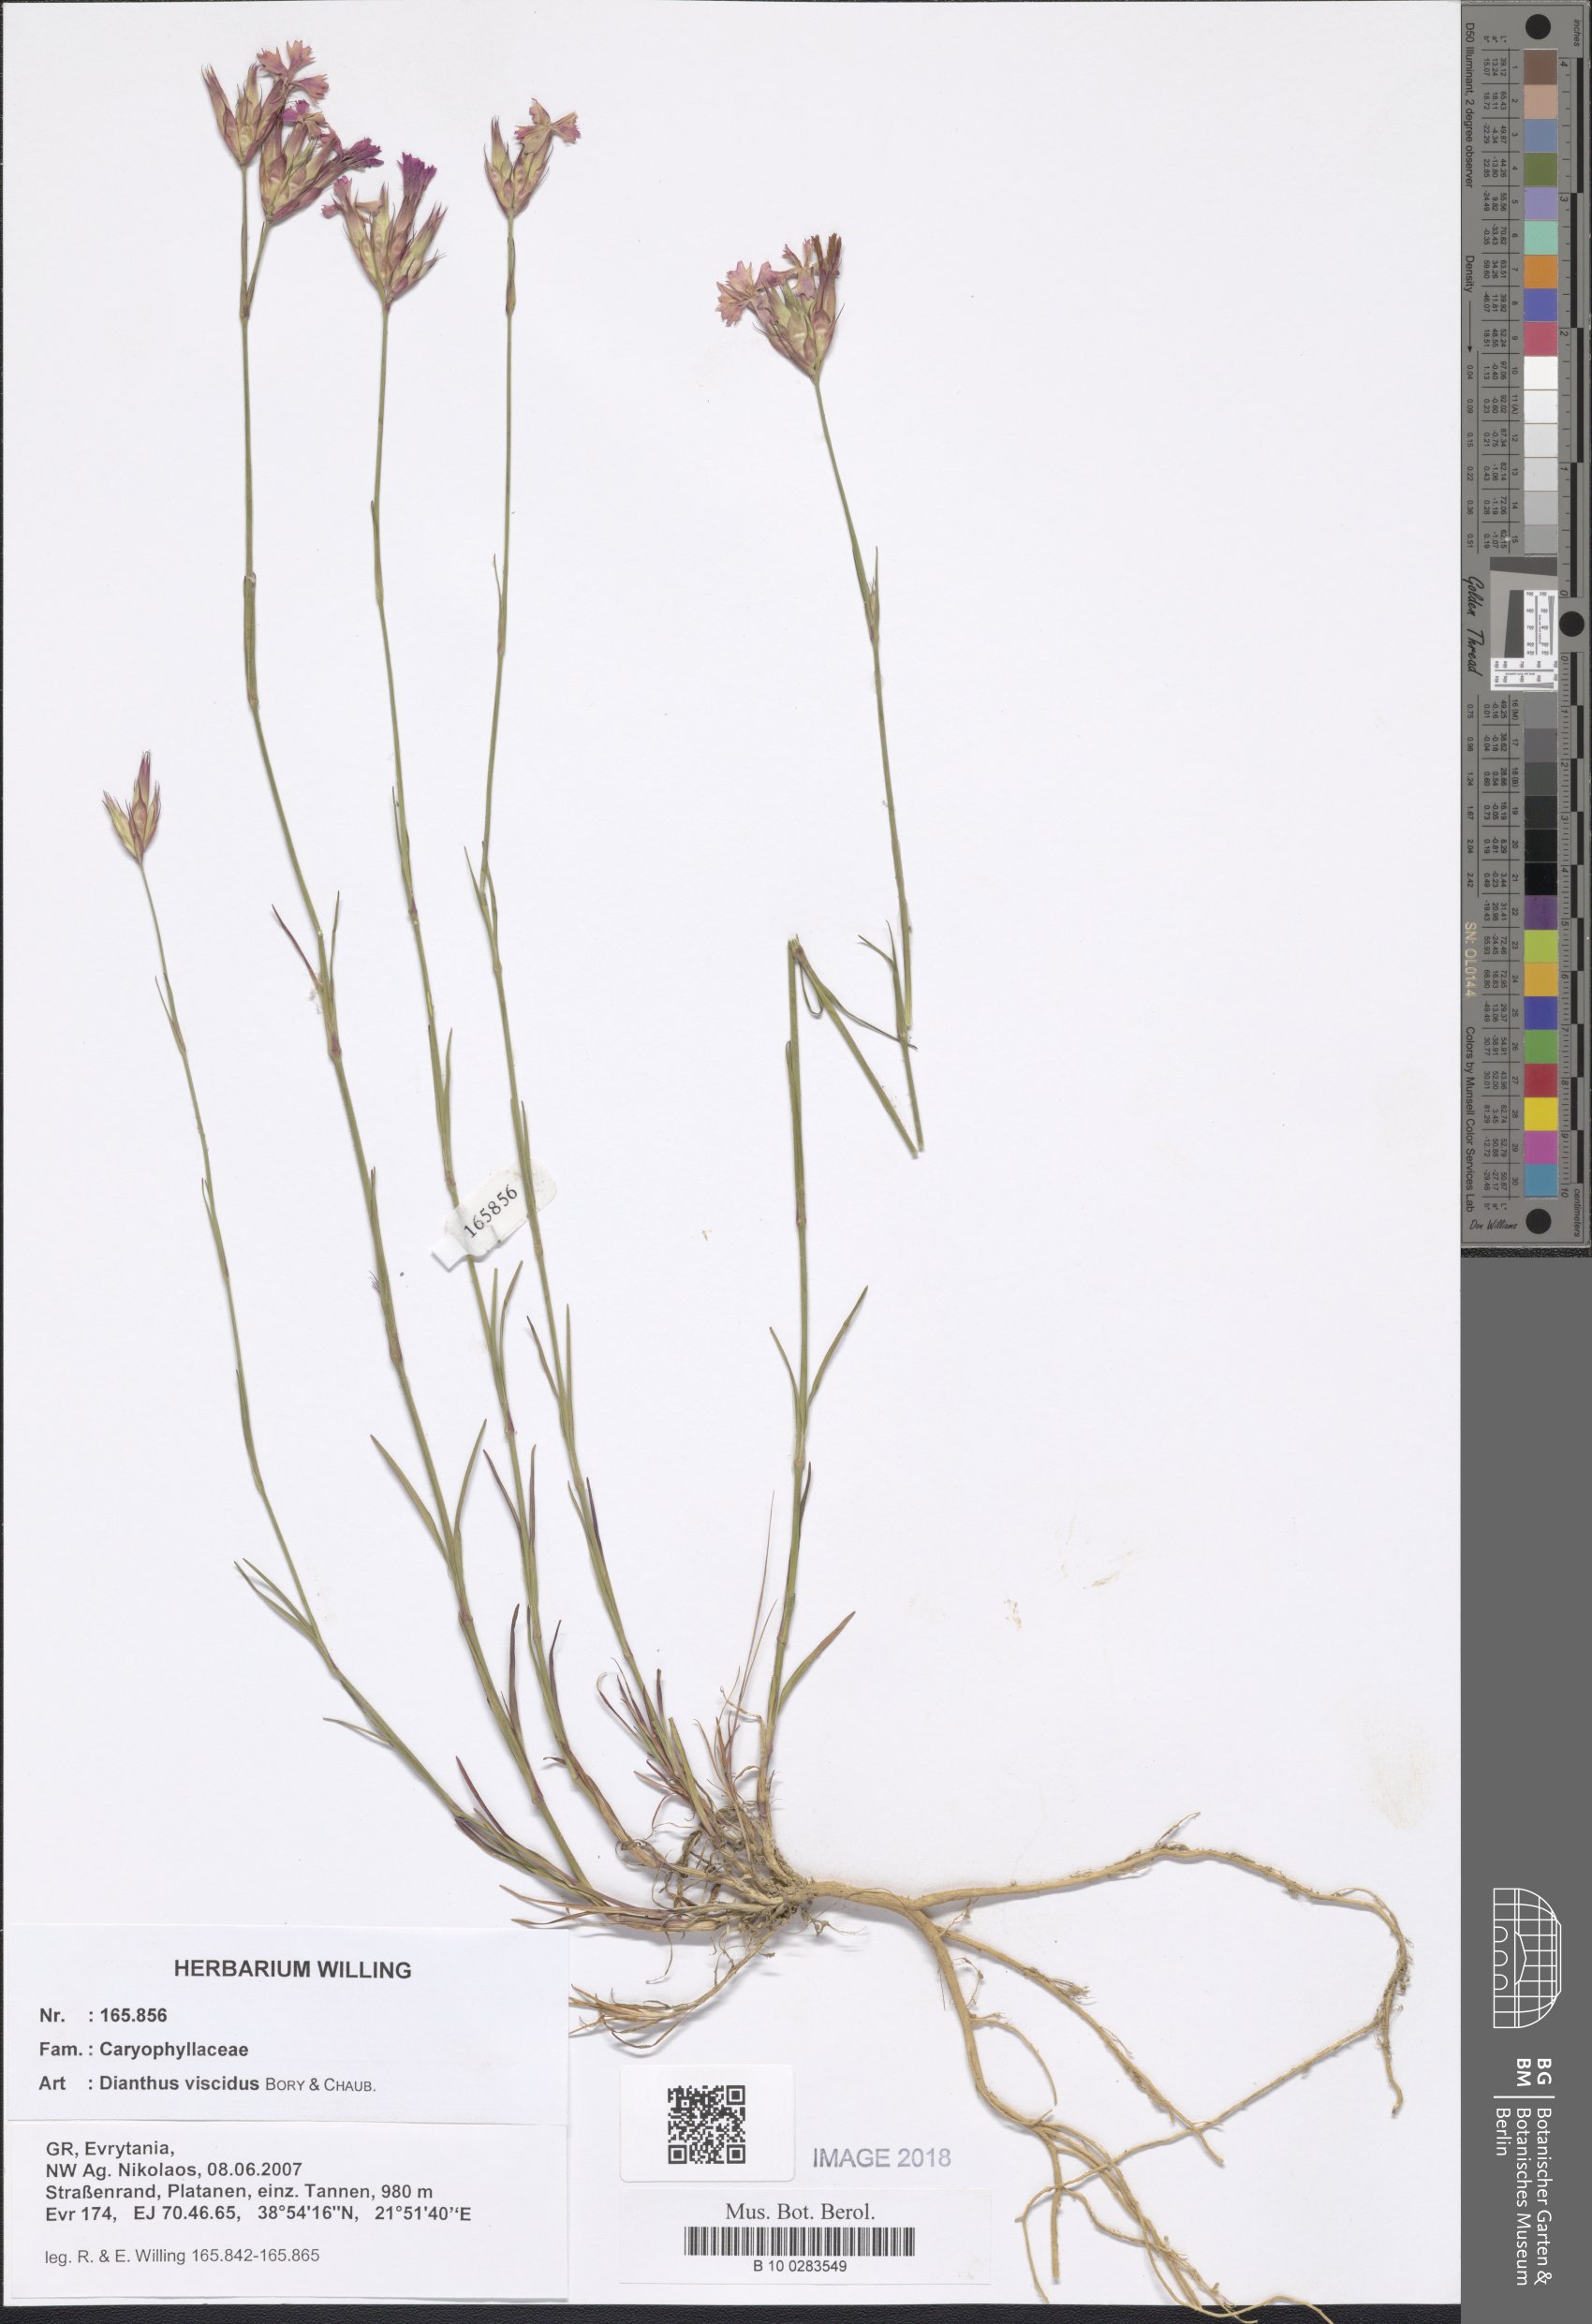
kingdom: Plantae
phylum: Tracheophyta
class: Magnoliopsida
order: Caryophyllales
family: Caryophyllaceae
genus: Dianthus
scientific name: Dianthus viscidus
